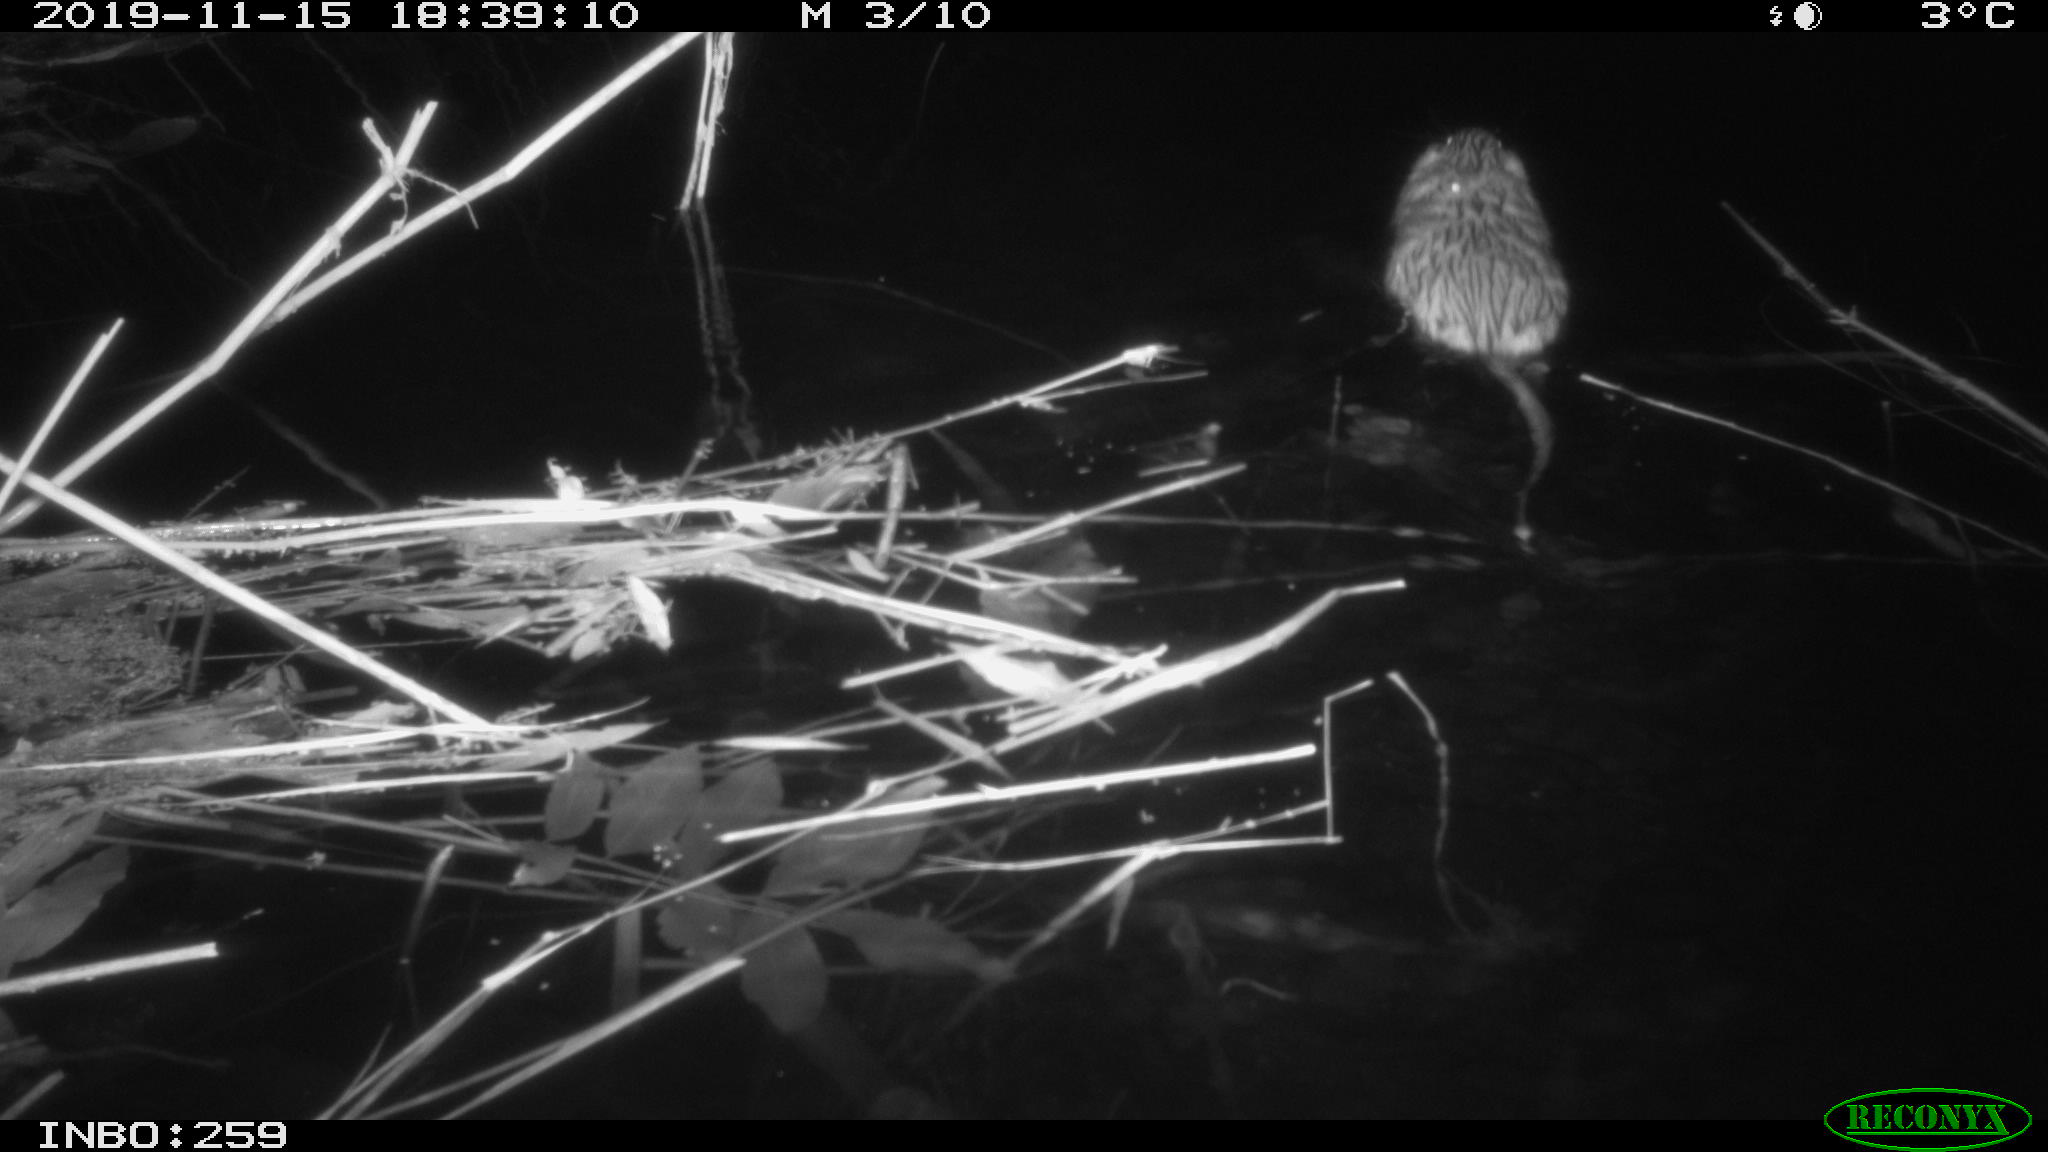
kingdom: Animalia
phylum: Chordata
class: Mammalia
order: Rodentia
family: Cricetidae
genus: Ondatra
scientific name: Ondatra zibethicus
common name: Muskrat
